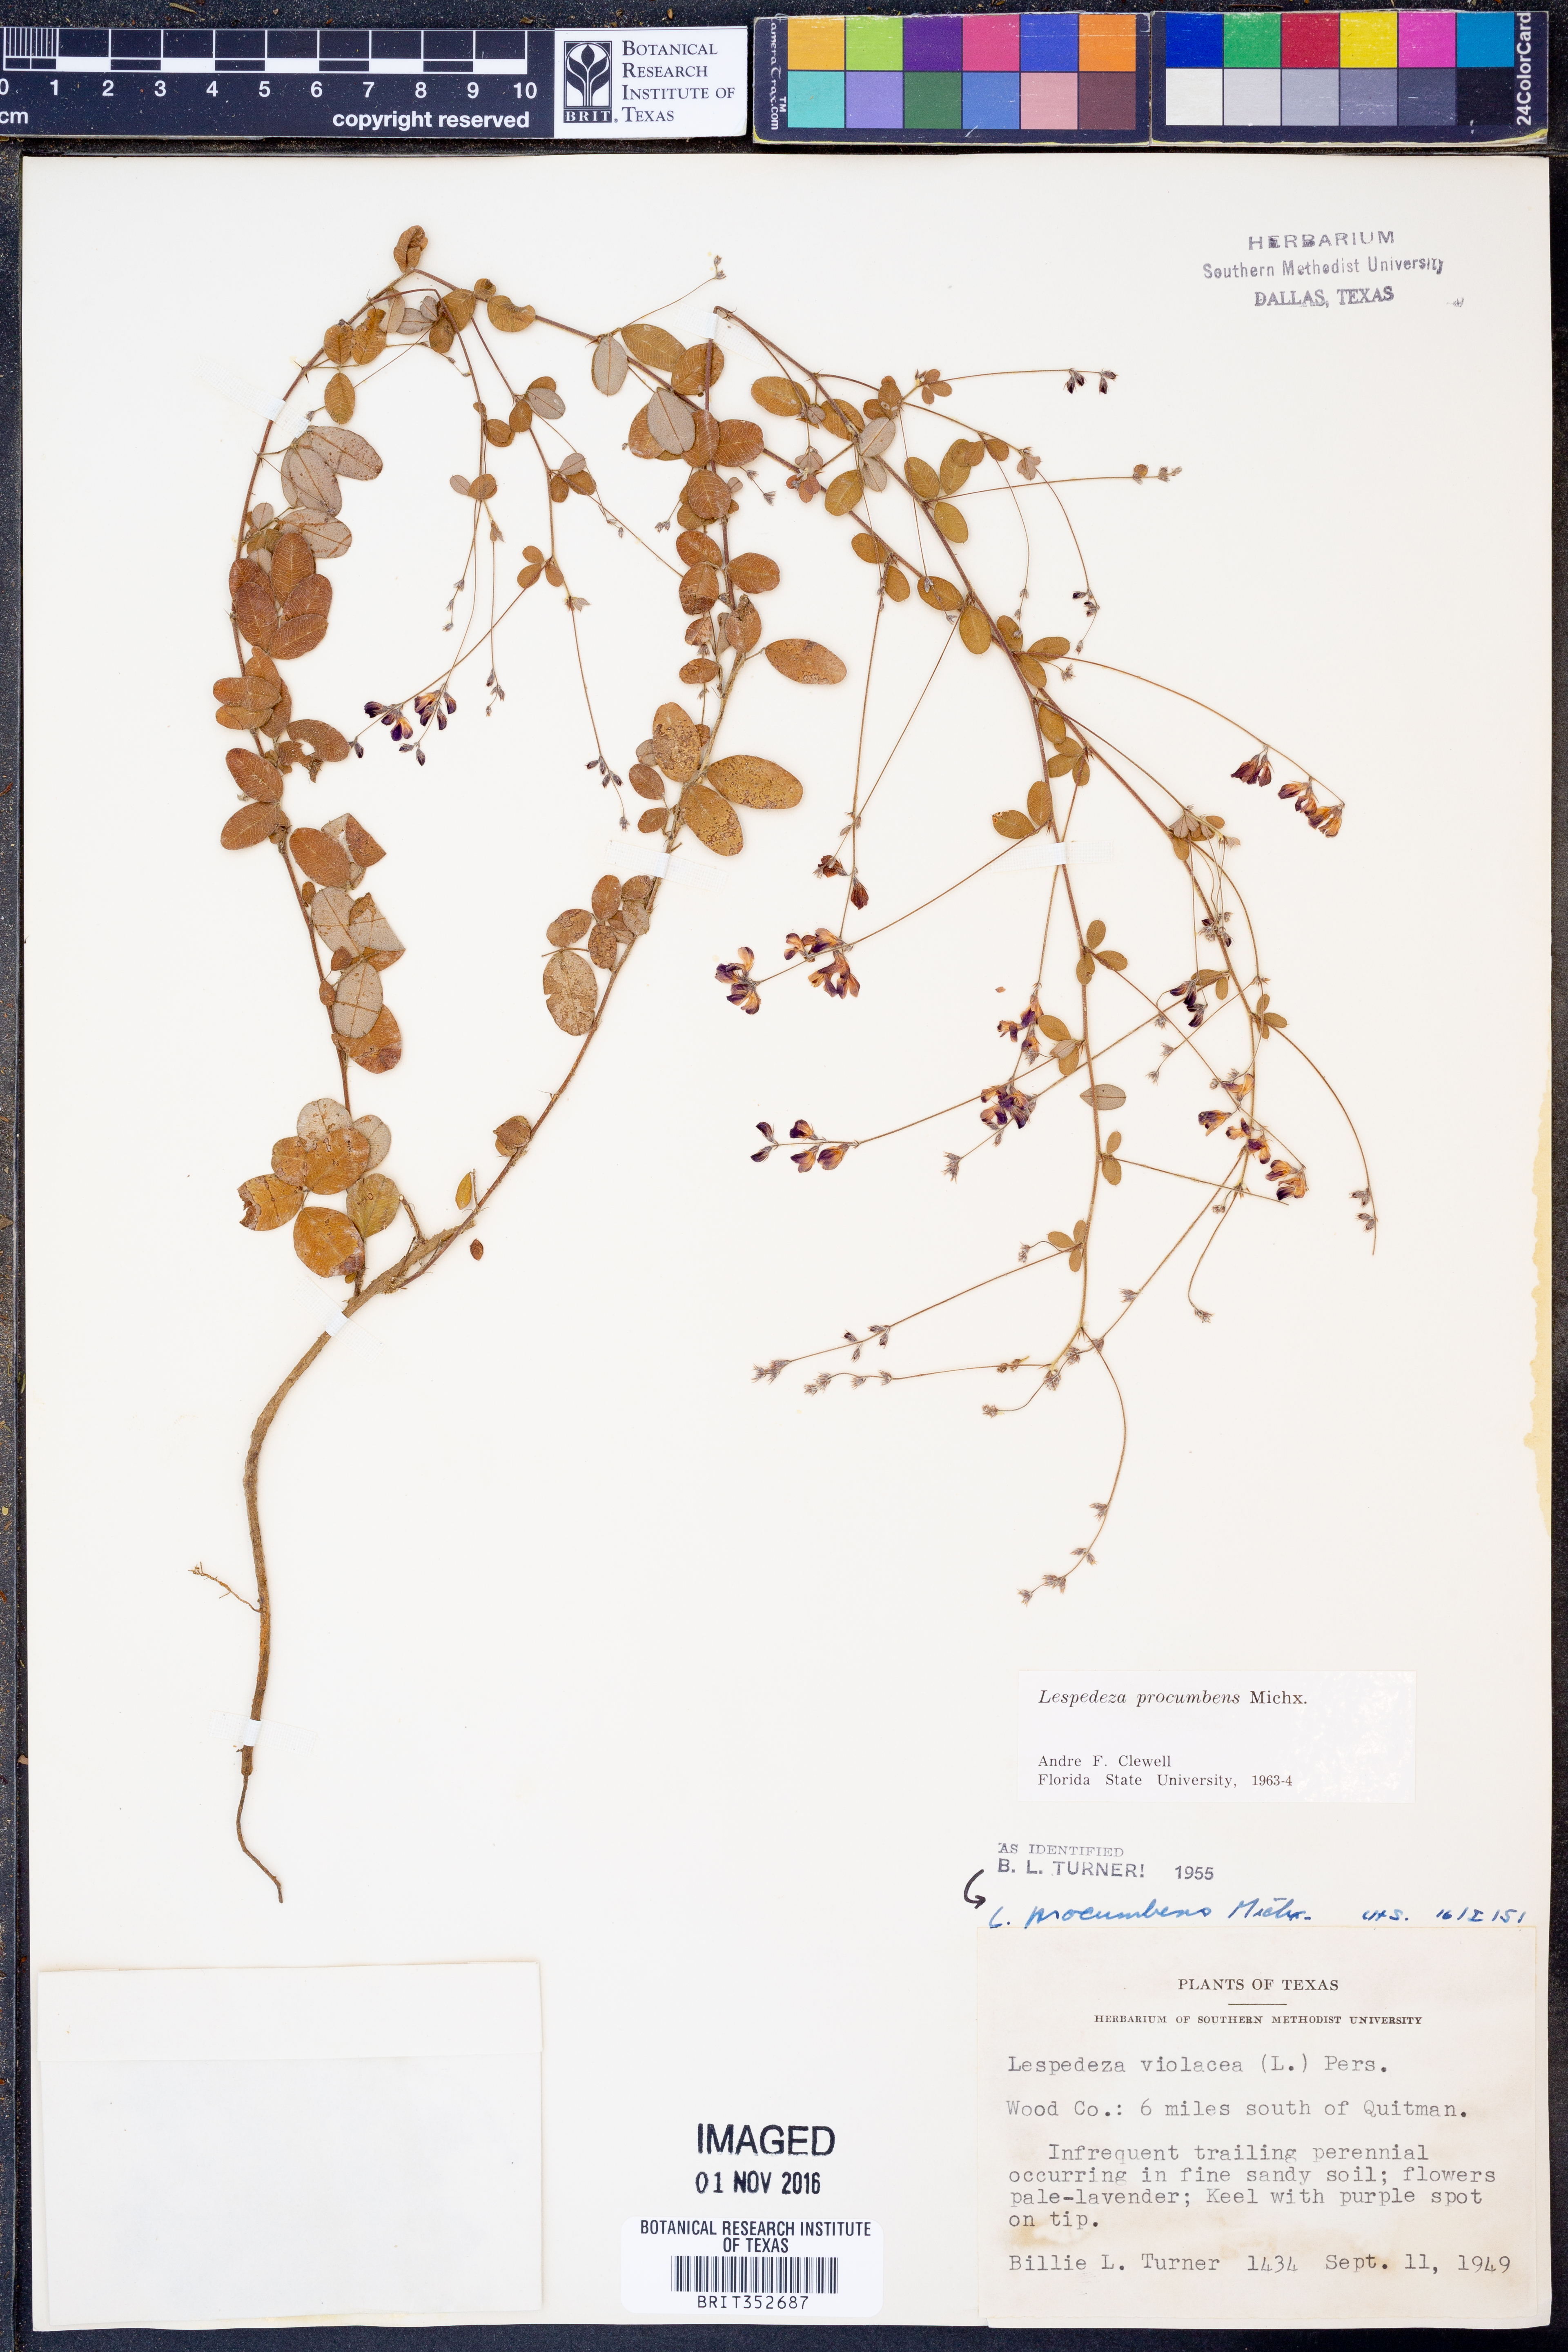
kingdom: Plantae
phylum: Tracheophyta
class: Magnoliopsida
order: Fabales
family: Fabaceae
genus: Lespedeza
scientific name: Lespedeza procumbens
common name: Downy trailing bush-clover
